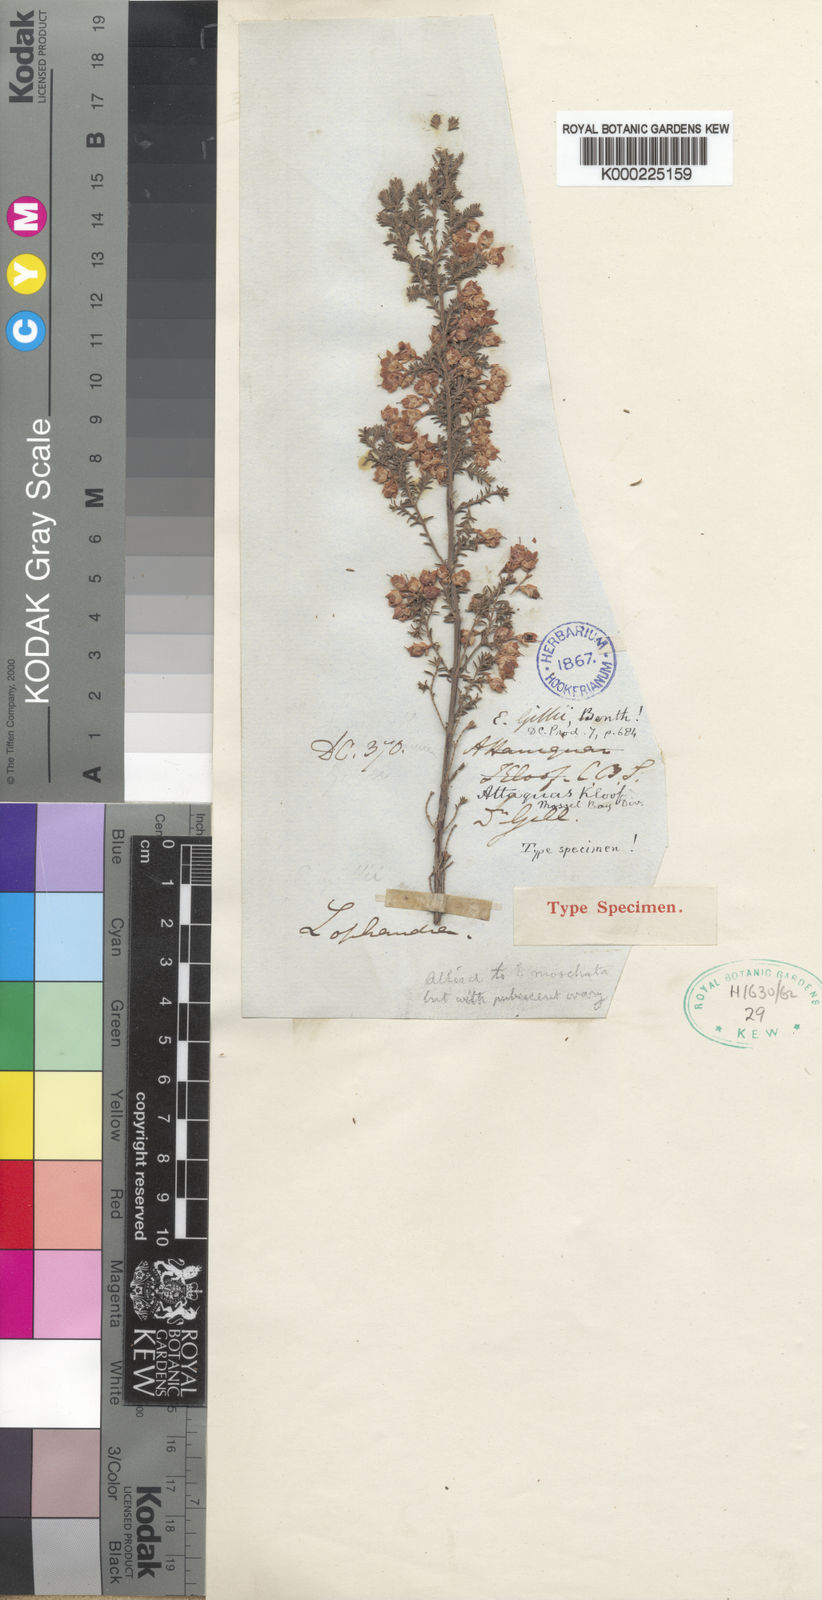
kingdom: Plantae
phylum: Tracheophyta
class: Magnoliopsida
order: Ericales
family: Ericaceae
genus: Erica
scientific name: Erica gillii
